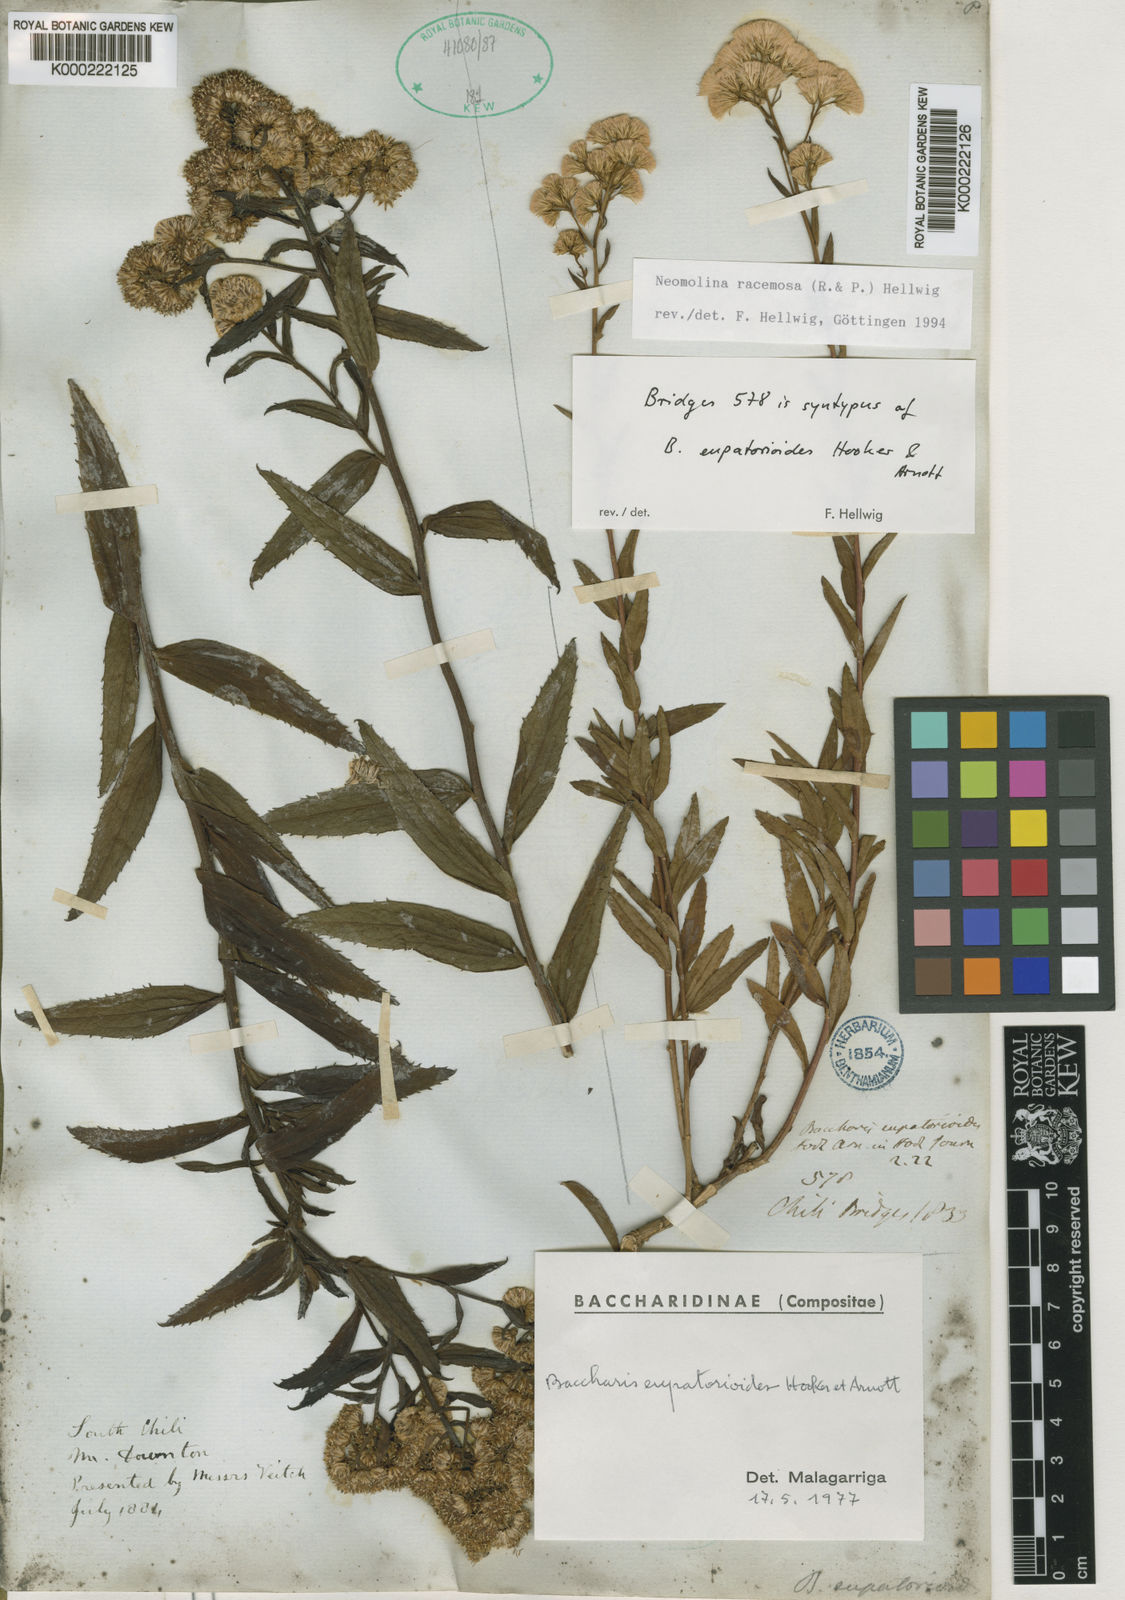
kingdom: Plantae
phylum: Tracheophyta
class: Magnoliopsida
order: Asterales
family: Asteraceae
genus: Baccharis
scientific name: Baccharis racemosa
